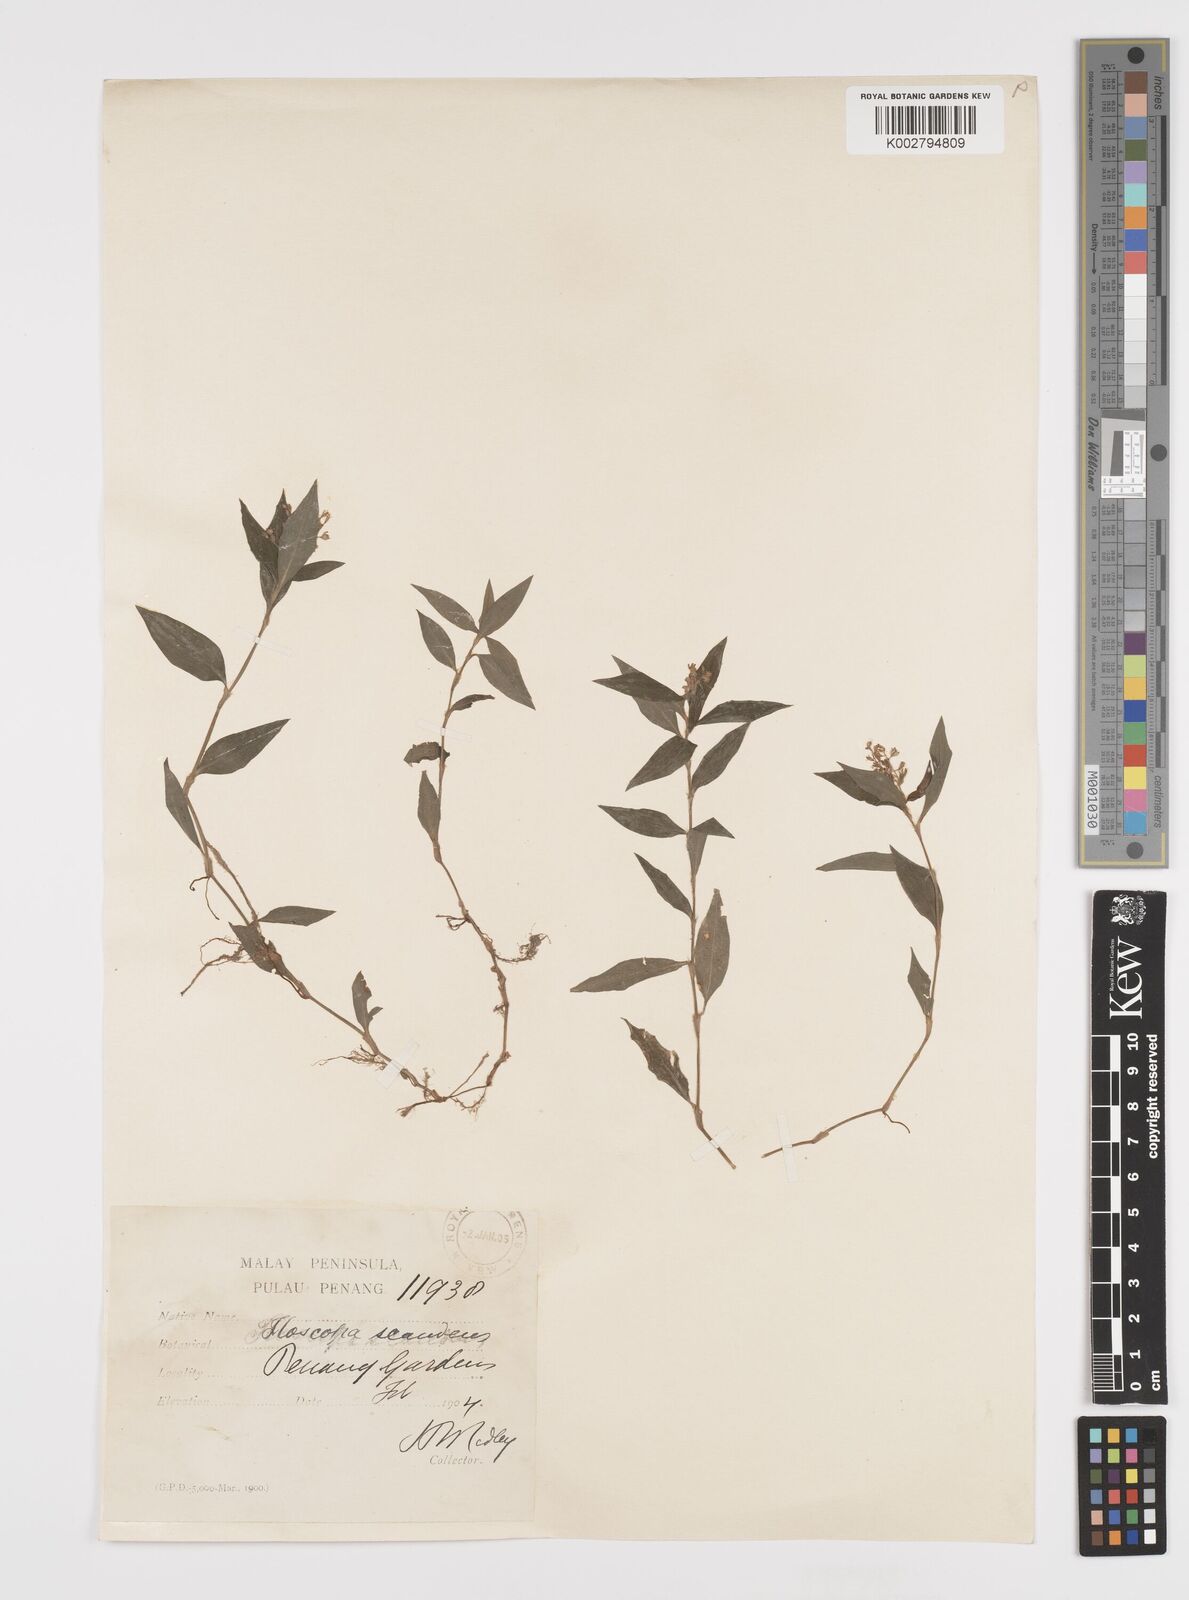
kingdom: Plantae
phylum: Tracheophyta
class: Liliopsida
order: Commelinales
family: Commelinaceae
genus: Floscopa
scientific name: Floscopa scandens
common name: Climbing flower cup
